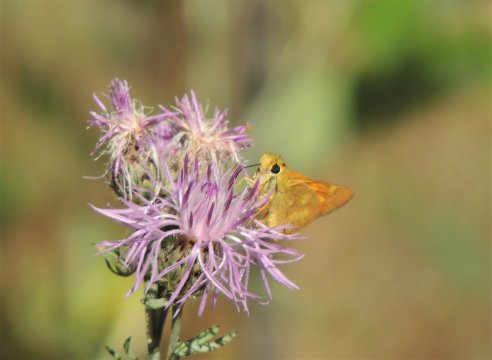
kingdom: Animalia
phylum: Arthropoda
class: Insecta
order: Lepidoptera
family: Hesperiidae
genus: Ochlodes
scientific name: Ochlodes sylvanoides
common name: Woodland Skipper
